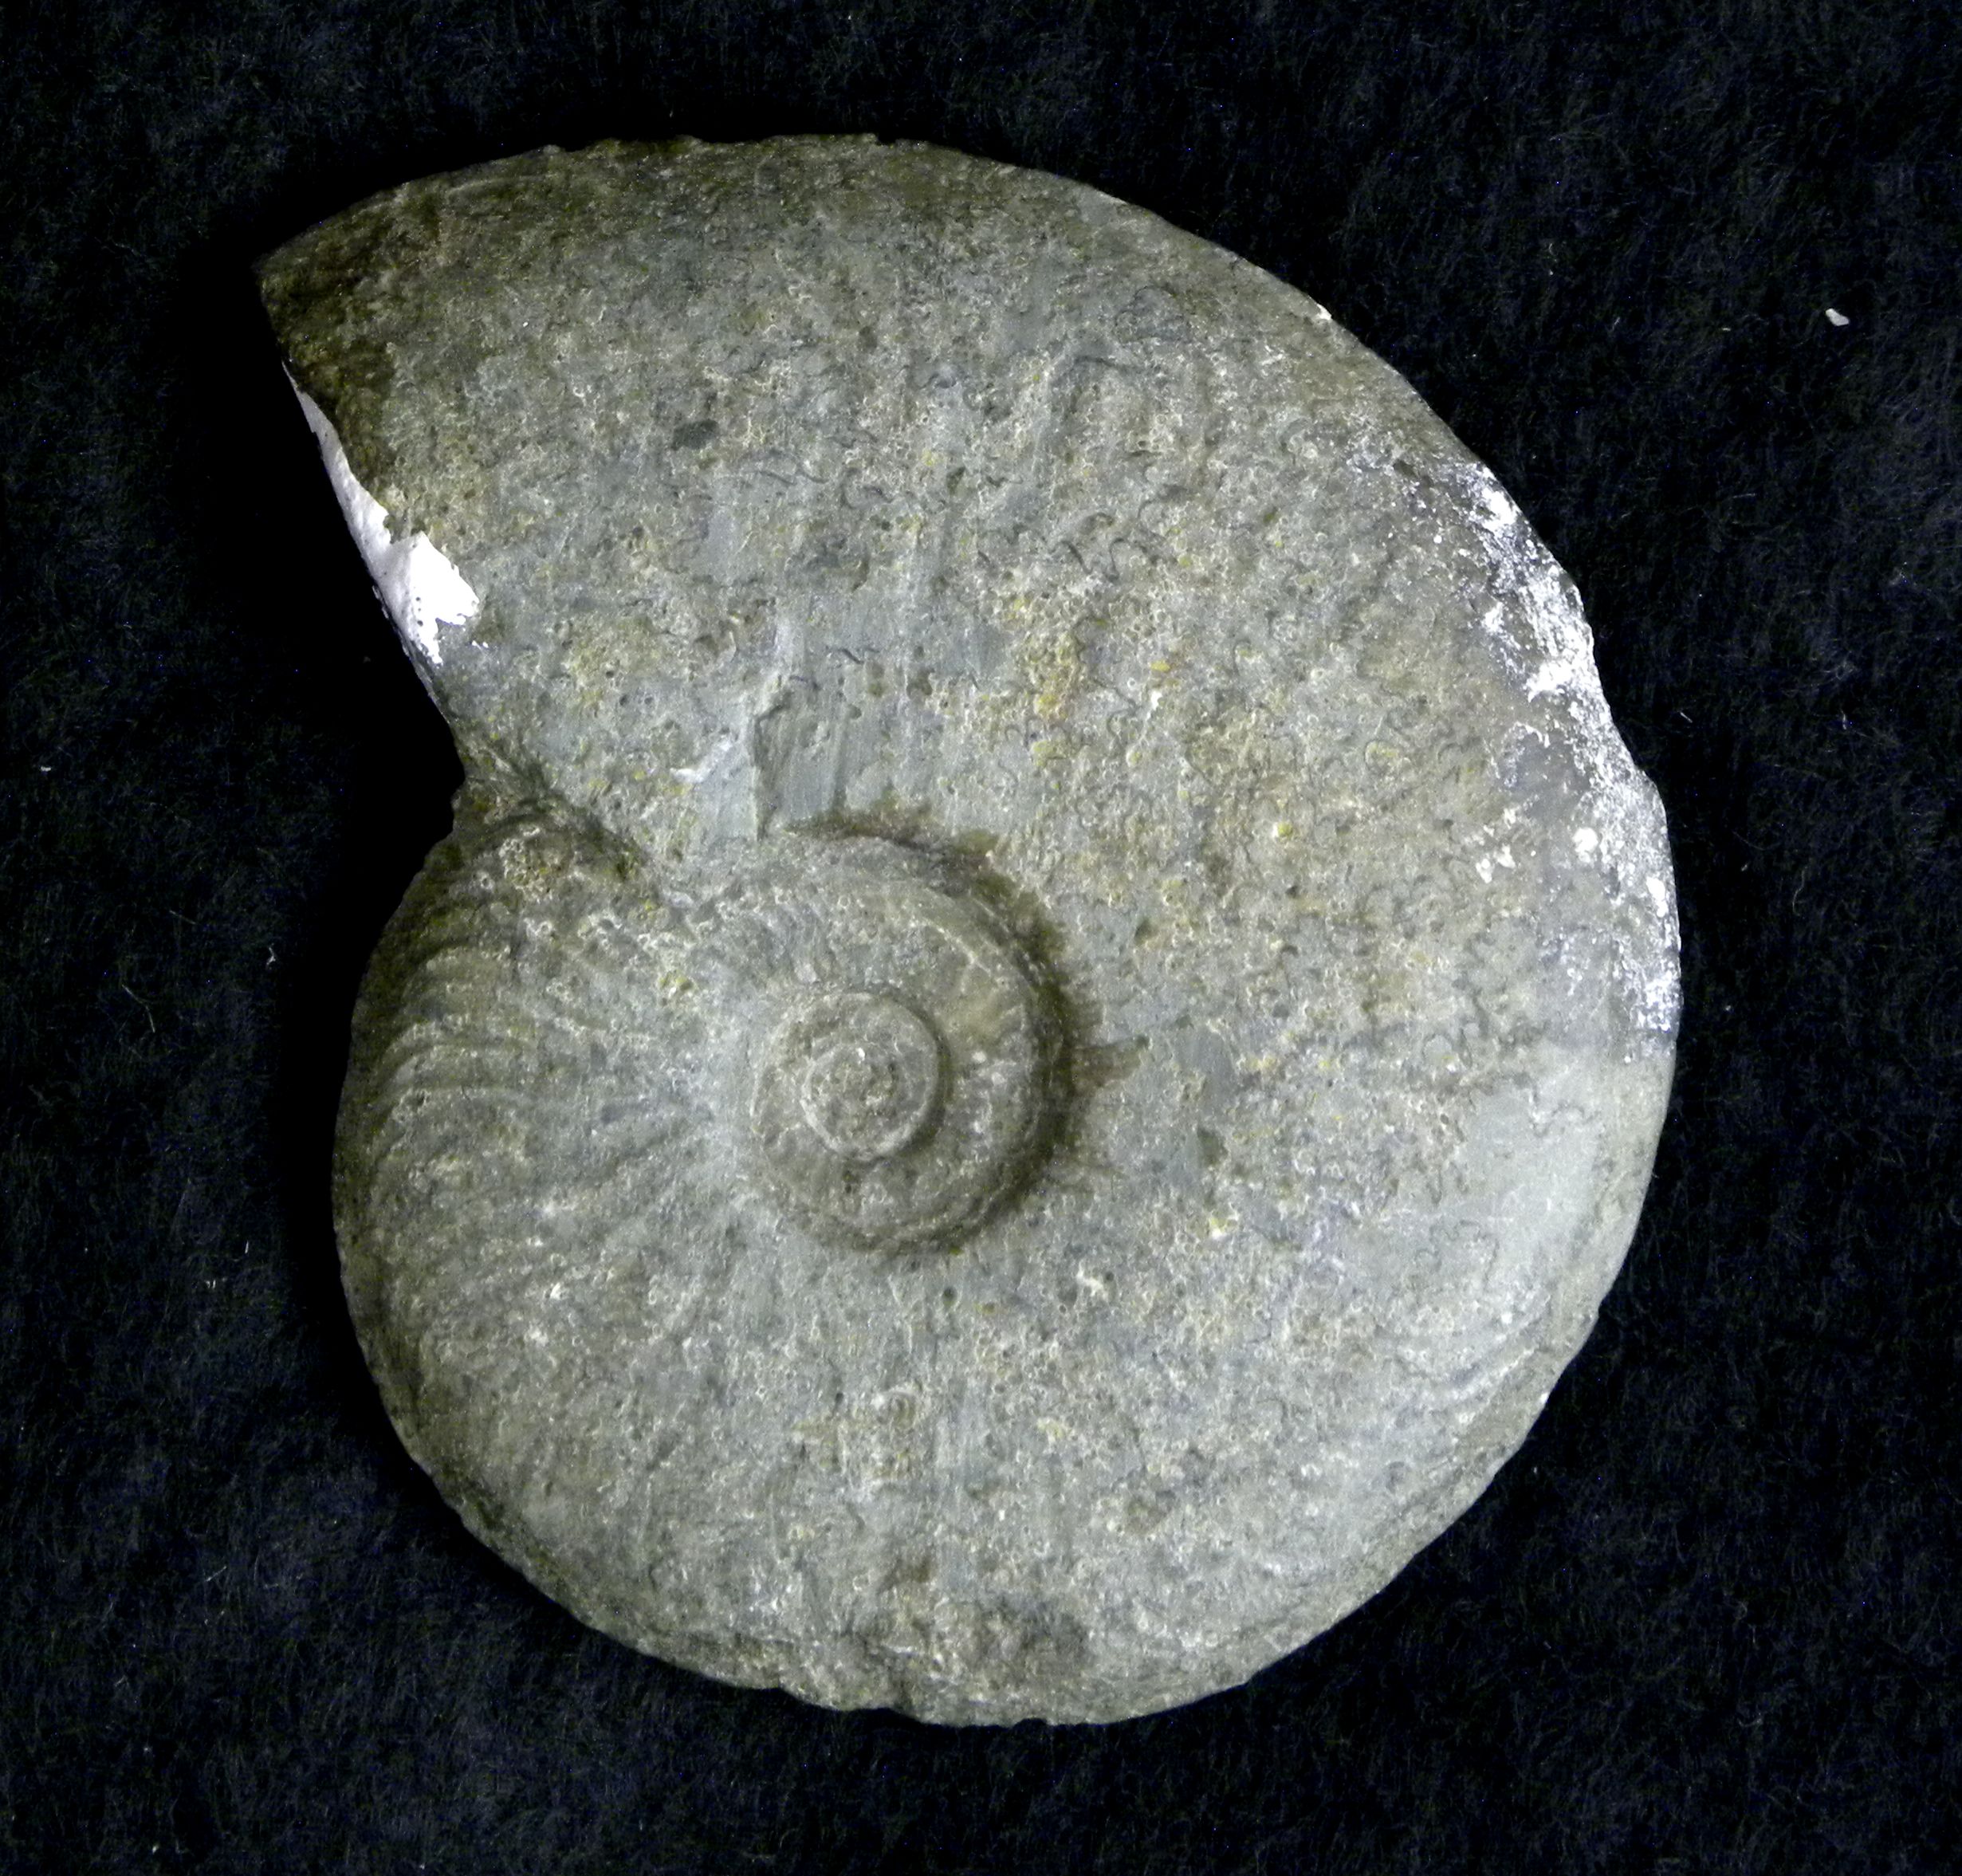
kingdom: Animalia
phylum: Mollusca
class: Cephalopoda
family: Hildoceratidae
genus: Pleydellia
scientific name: Pleydellia
